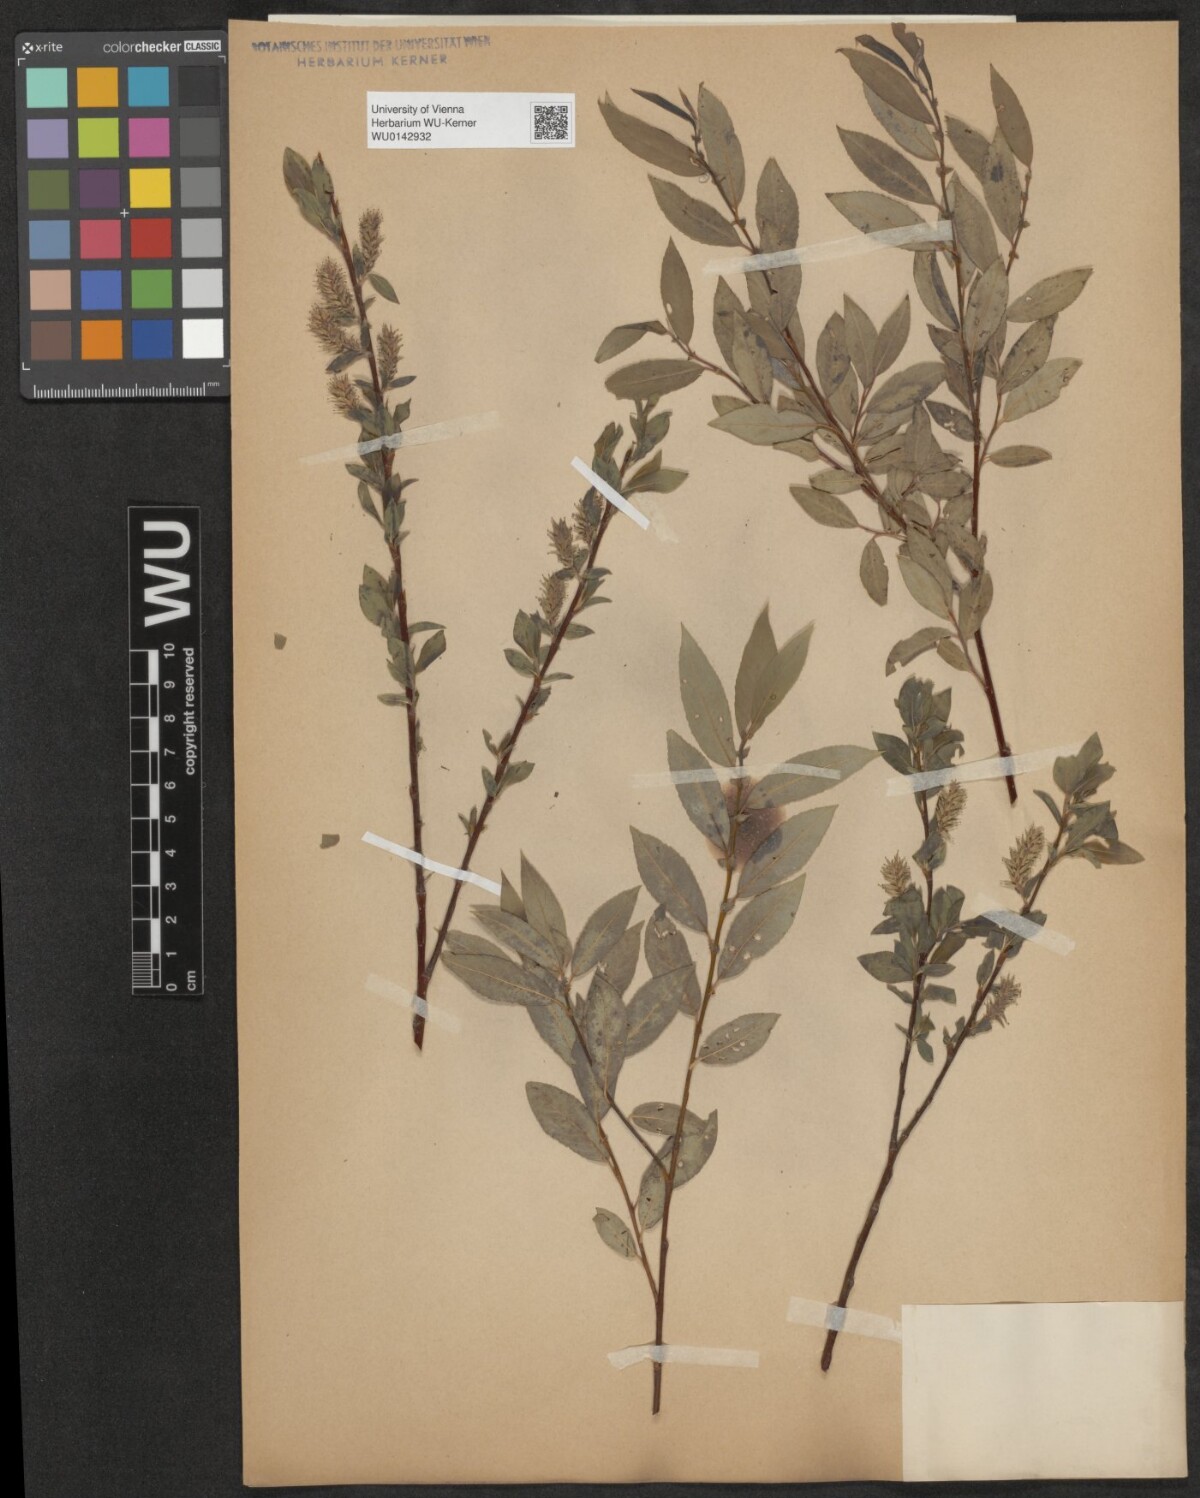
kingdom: Plantae
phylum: Tracheophyta
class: Magnoliopsida
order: Malpighiales
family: Salicaceae
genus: Salix
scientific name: Salix myrsinifolia
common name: Dark-leaved willow
